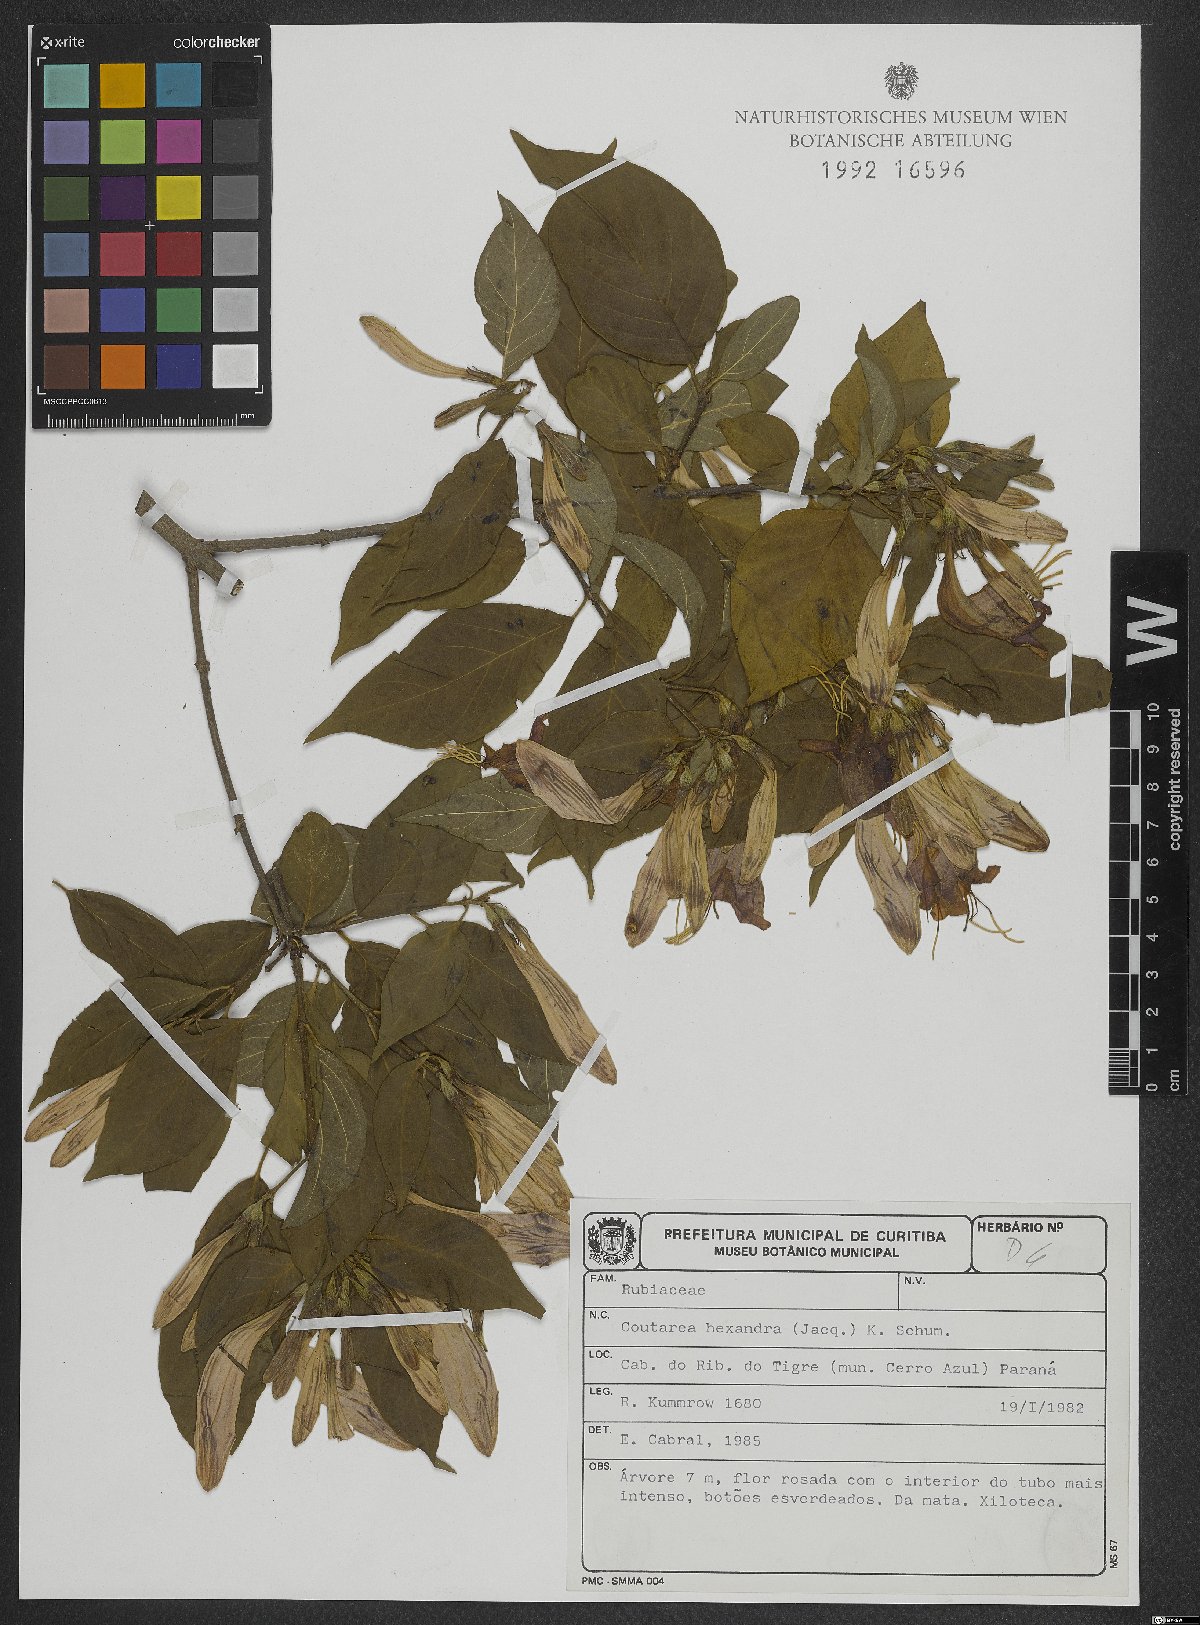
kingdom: Plantae
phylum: Tracheophyta
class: Magnoliopsida
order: Gentianales
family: Rubiaceae
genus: Coutarea
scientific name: Coutarea hexandra
